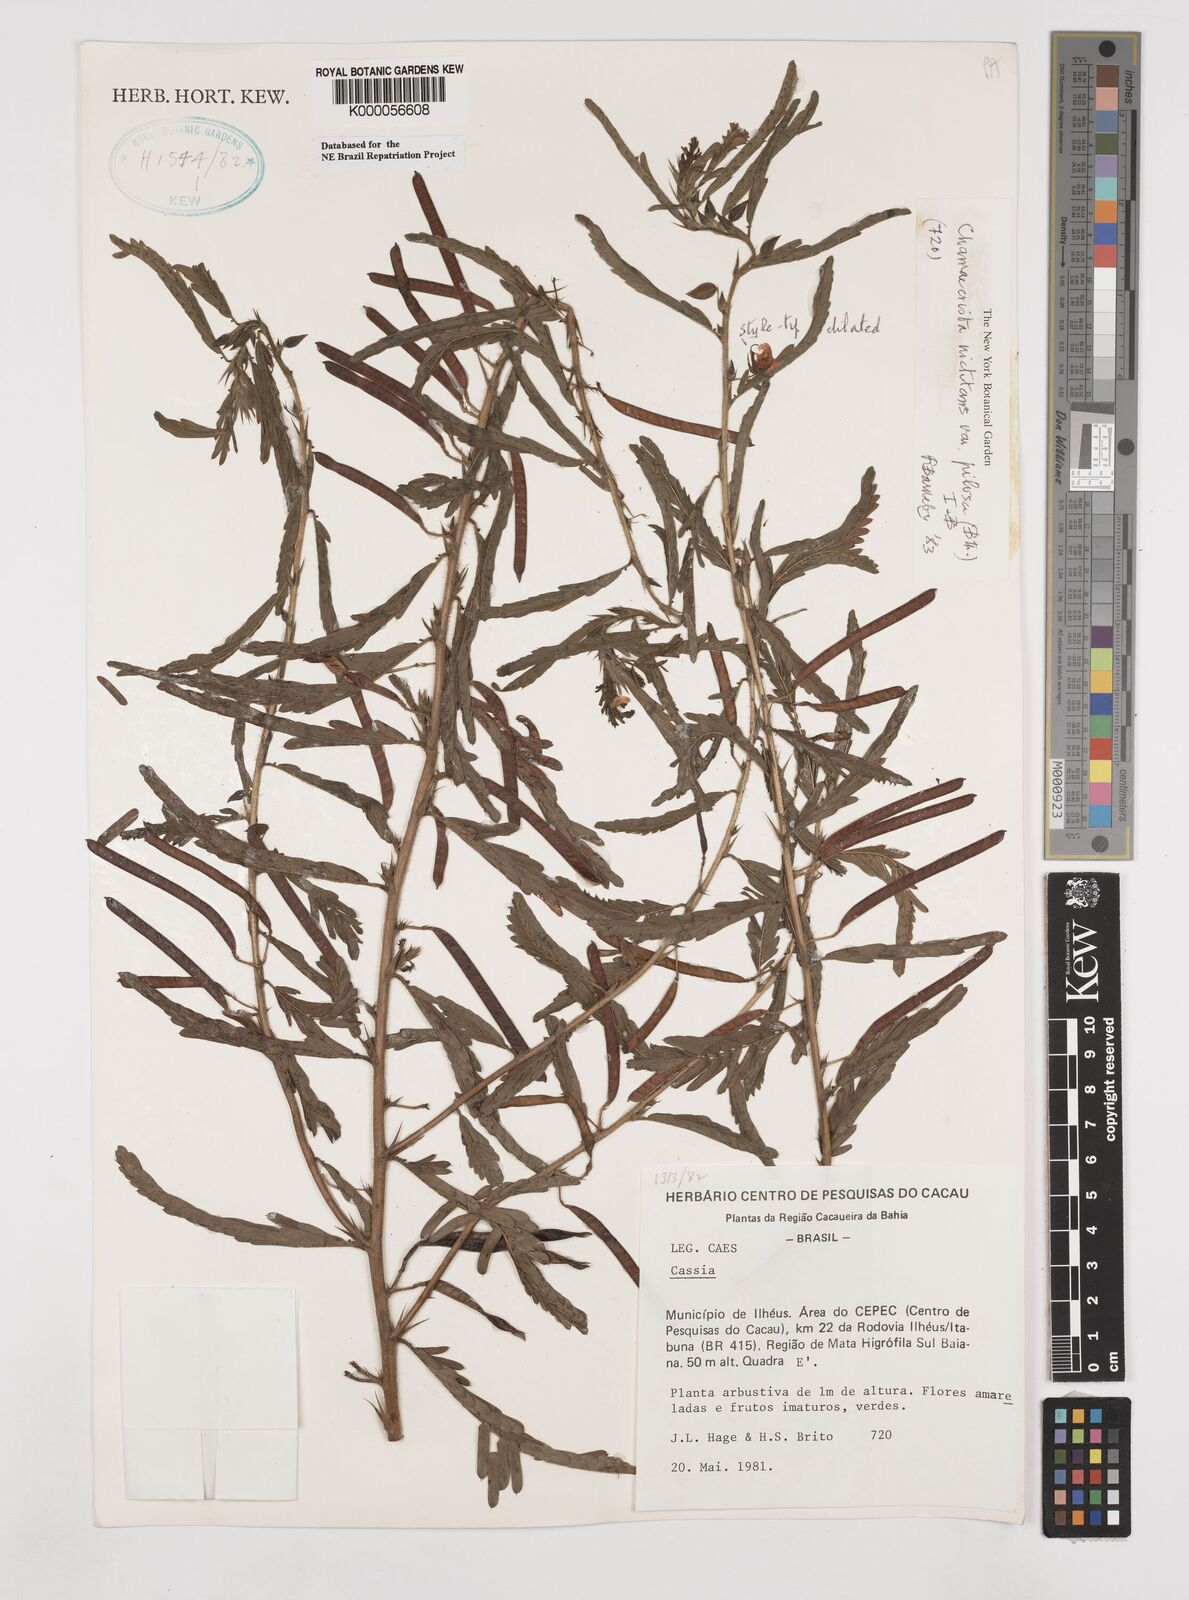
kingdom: Plantae
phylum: Tracheophyta
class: Magnoliopsida
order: Fabales
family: Fabaceae
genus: Chamaecrista
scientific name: Chamaecrista nictitans
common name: Sensitive cassia
